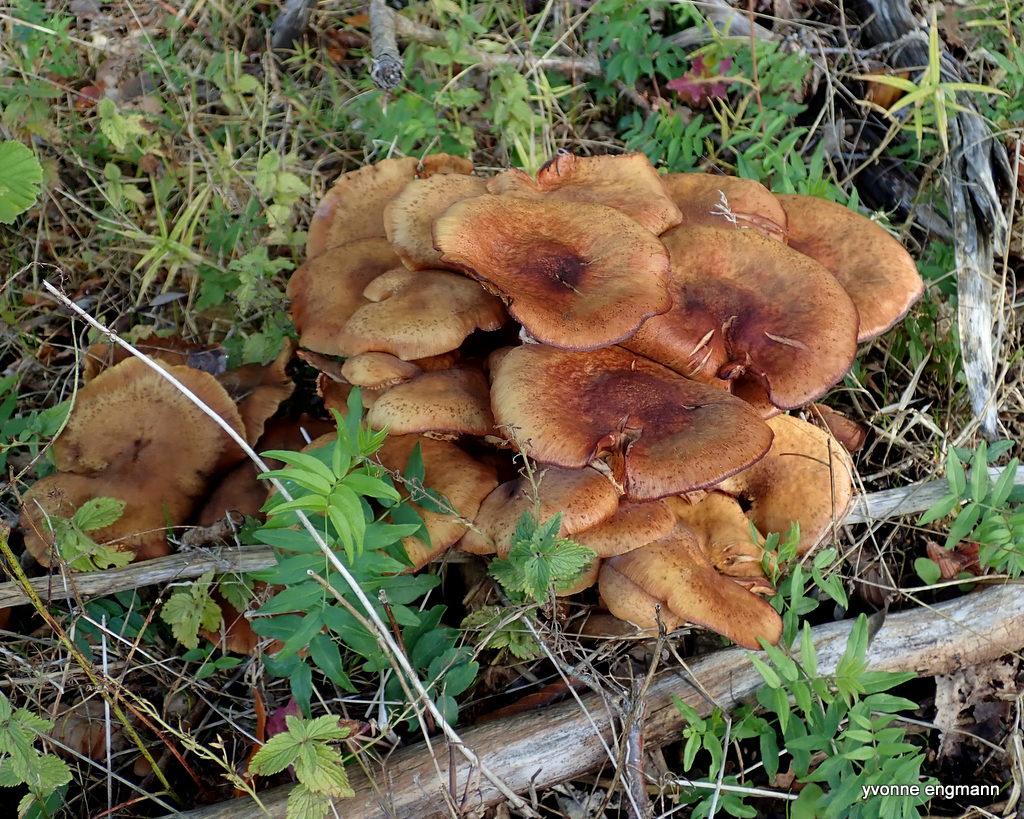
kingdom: Fungi
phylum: Basidiomycota
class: Agaricomycetes
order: Agaricales
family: Physalacriaceae
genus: Armillaria
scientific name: Armillaria lutea
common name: køllestokket honningsvamp
